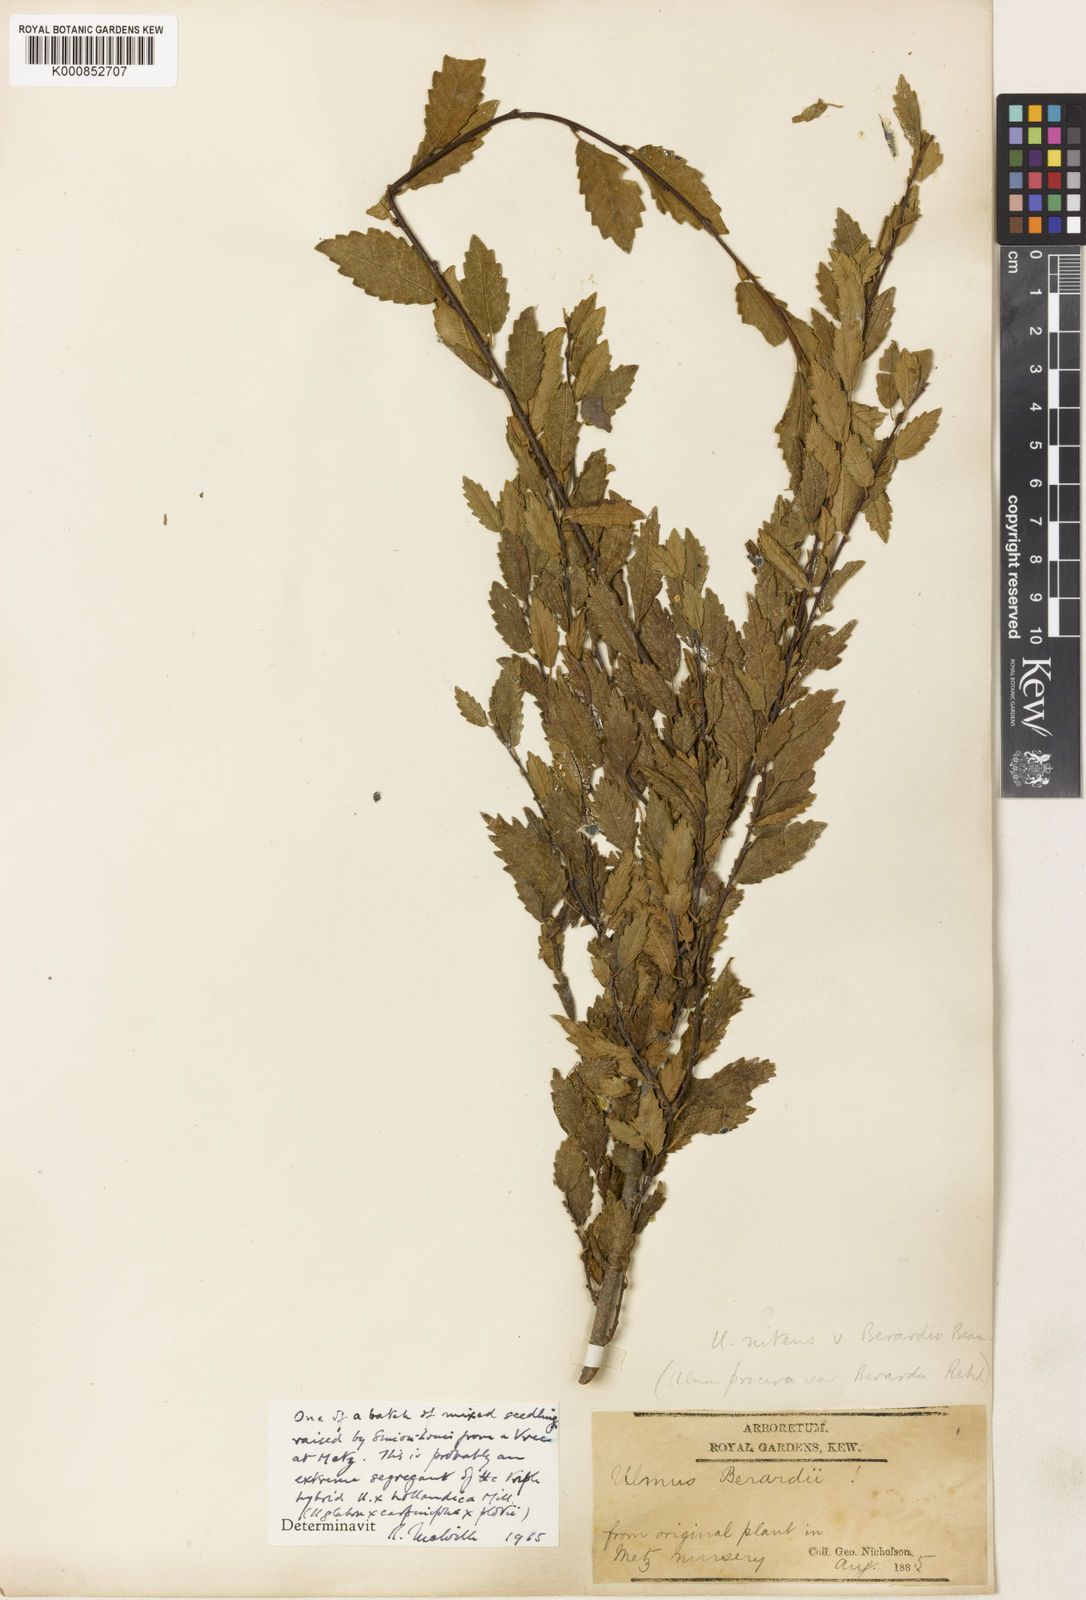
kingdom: Plantae
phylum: Tracheophyta
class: Magnoliopsida
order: Rosales
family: Ulmaceae
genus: Ulmus
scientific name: Ulmus
